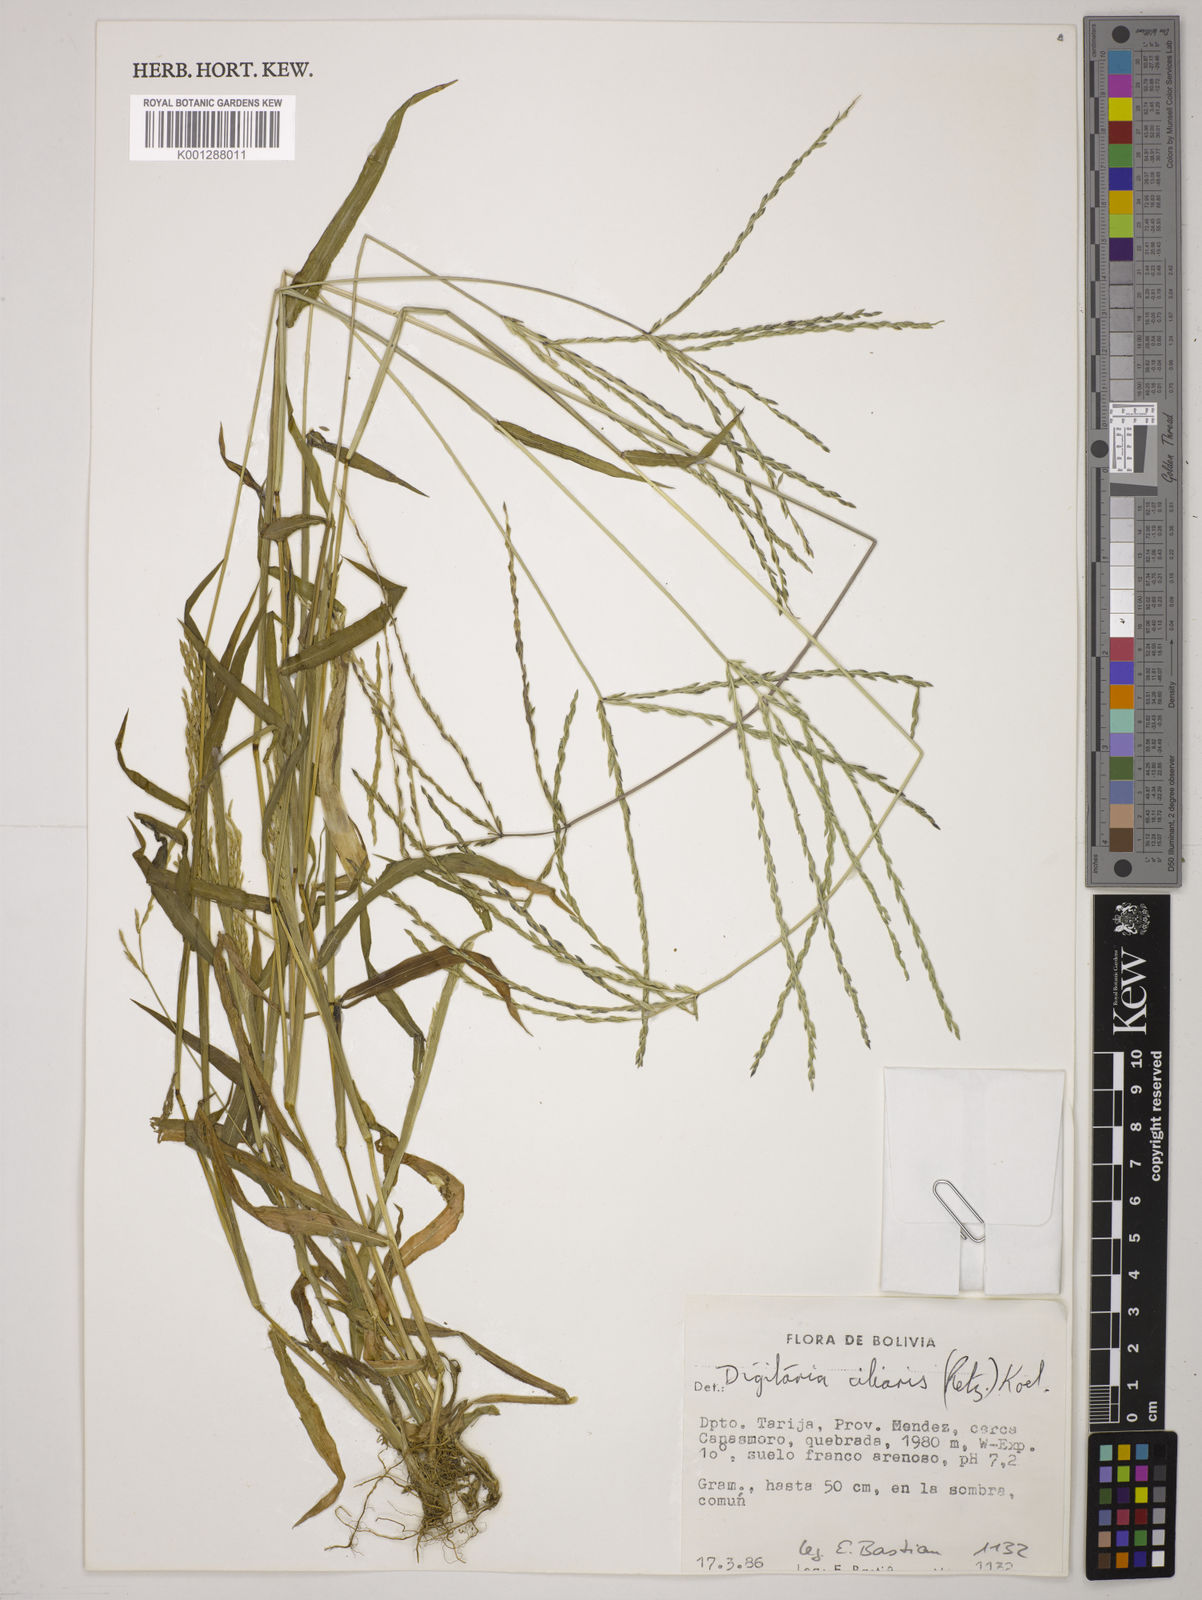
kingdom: Plantae
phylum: Tracheophyta
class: Liliopsida
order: Poales
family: Poaceae
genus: Digitaria
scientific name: Digitaria
